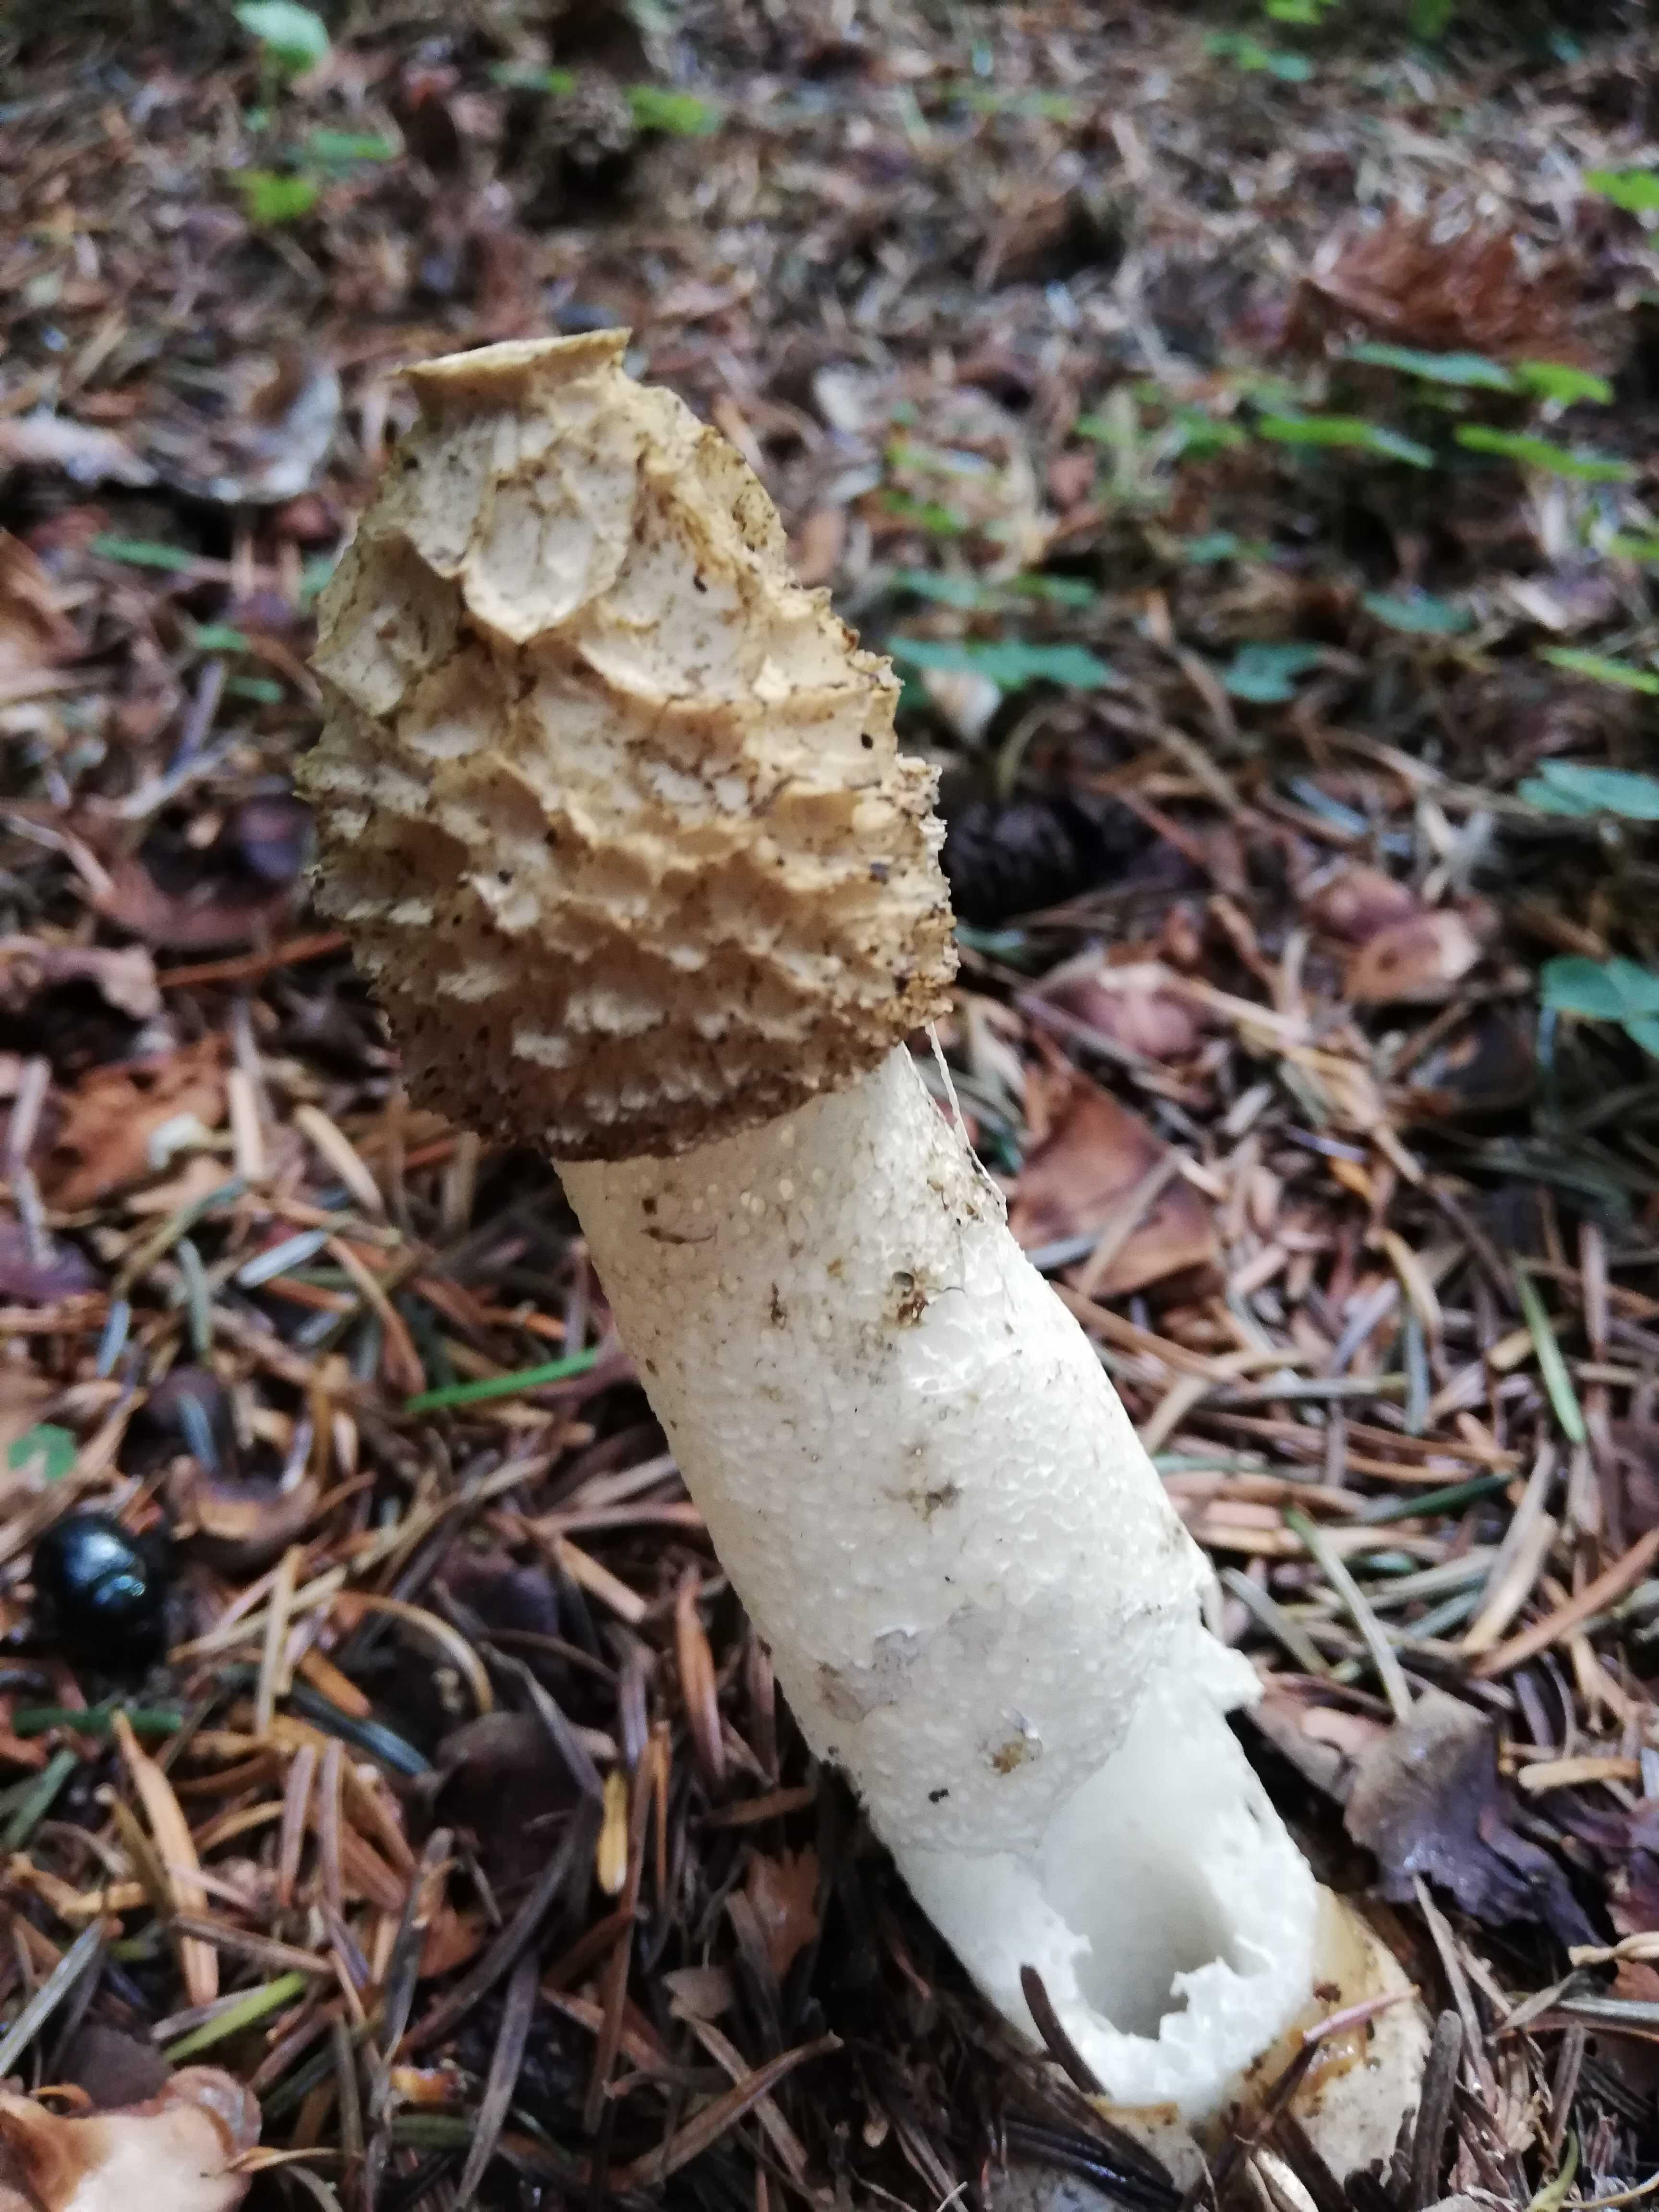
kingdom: Fungi
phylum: Basidiomycota
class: Agaricomycetes
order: Phallales
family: Phallaceae
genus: Phallus
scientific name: Phallus impudicus
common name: almindelig stinksvamp
